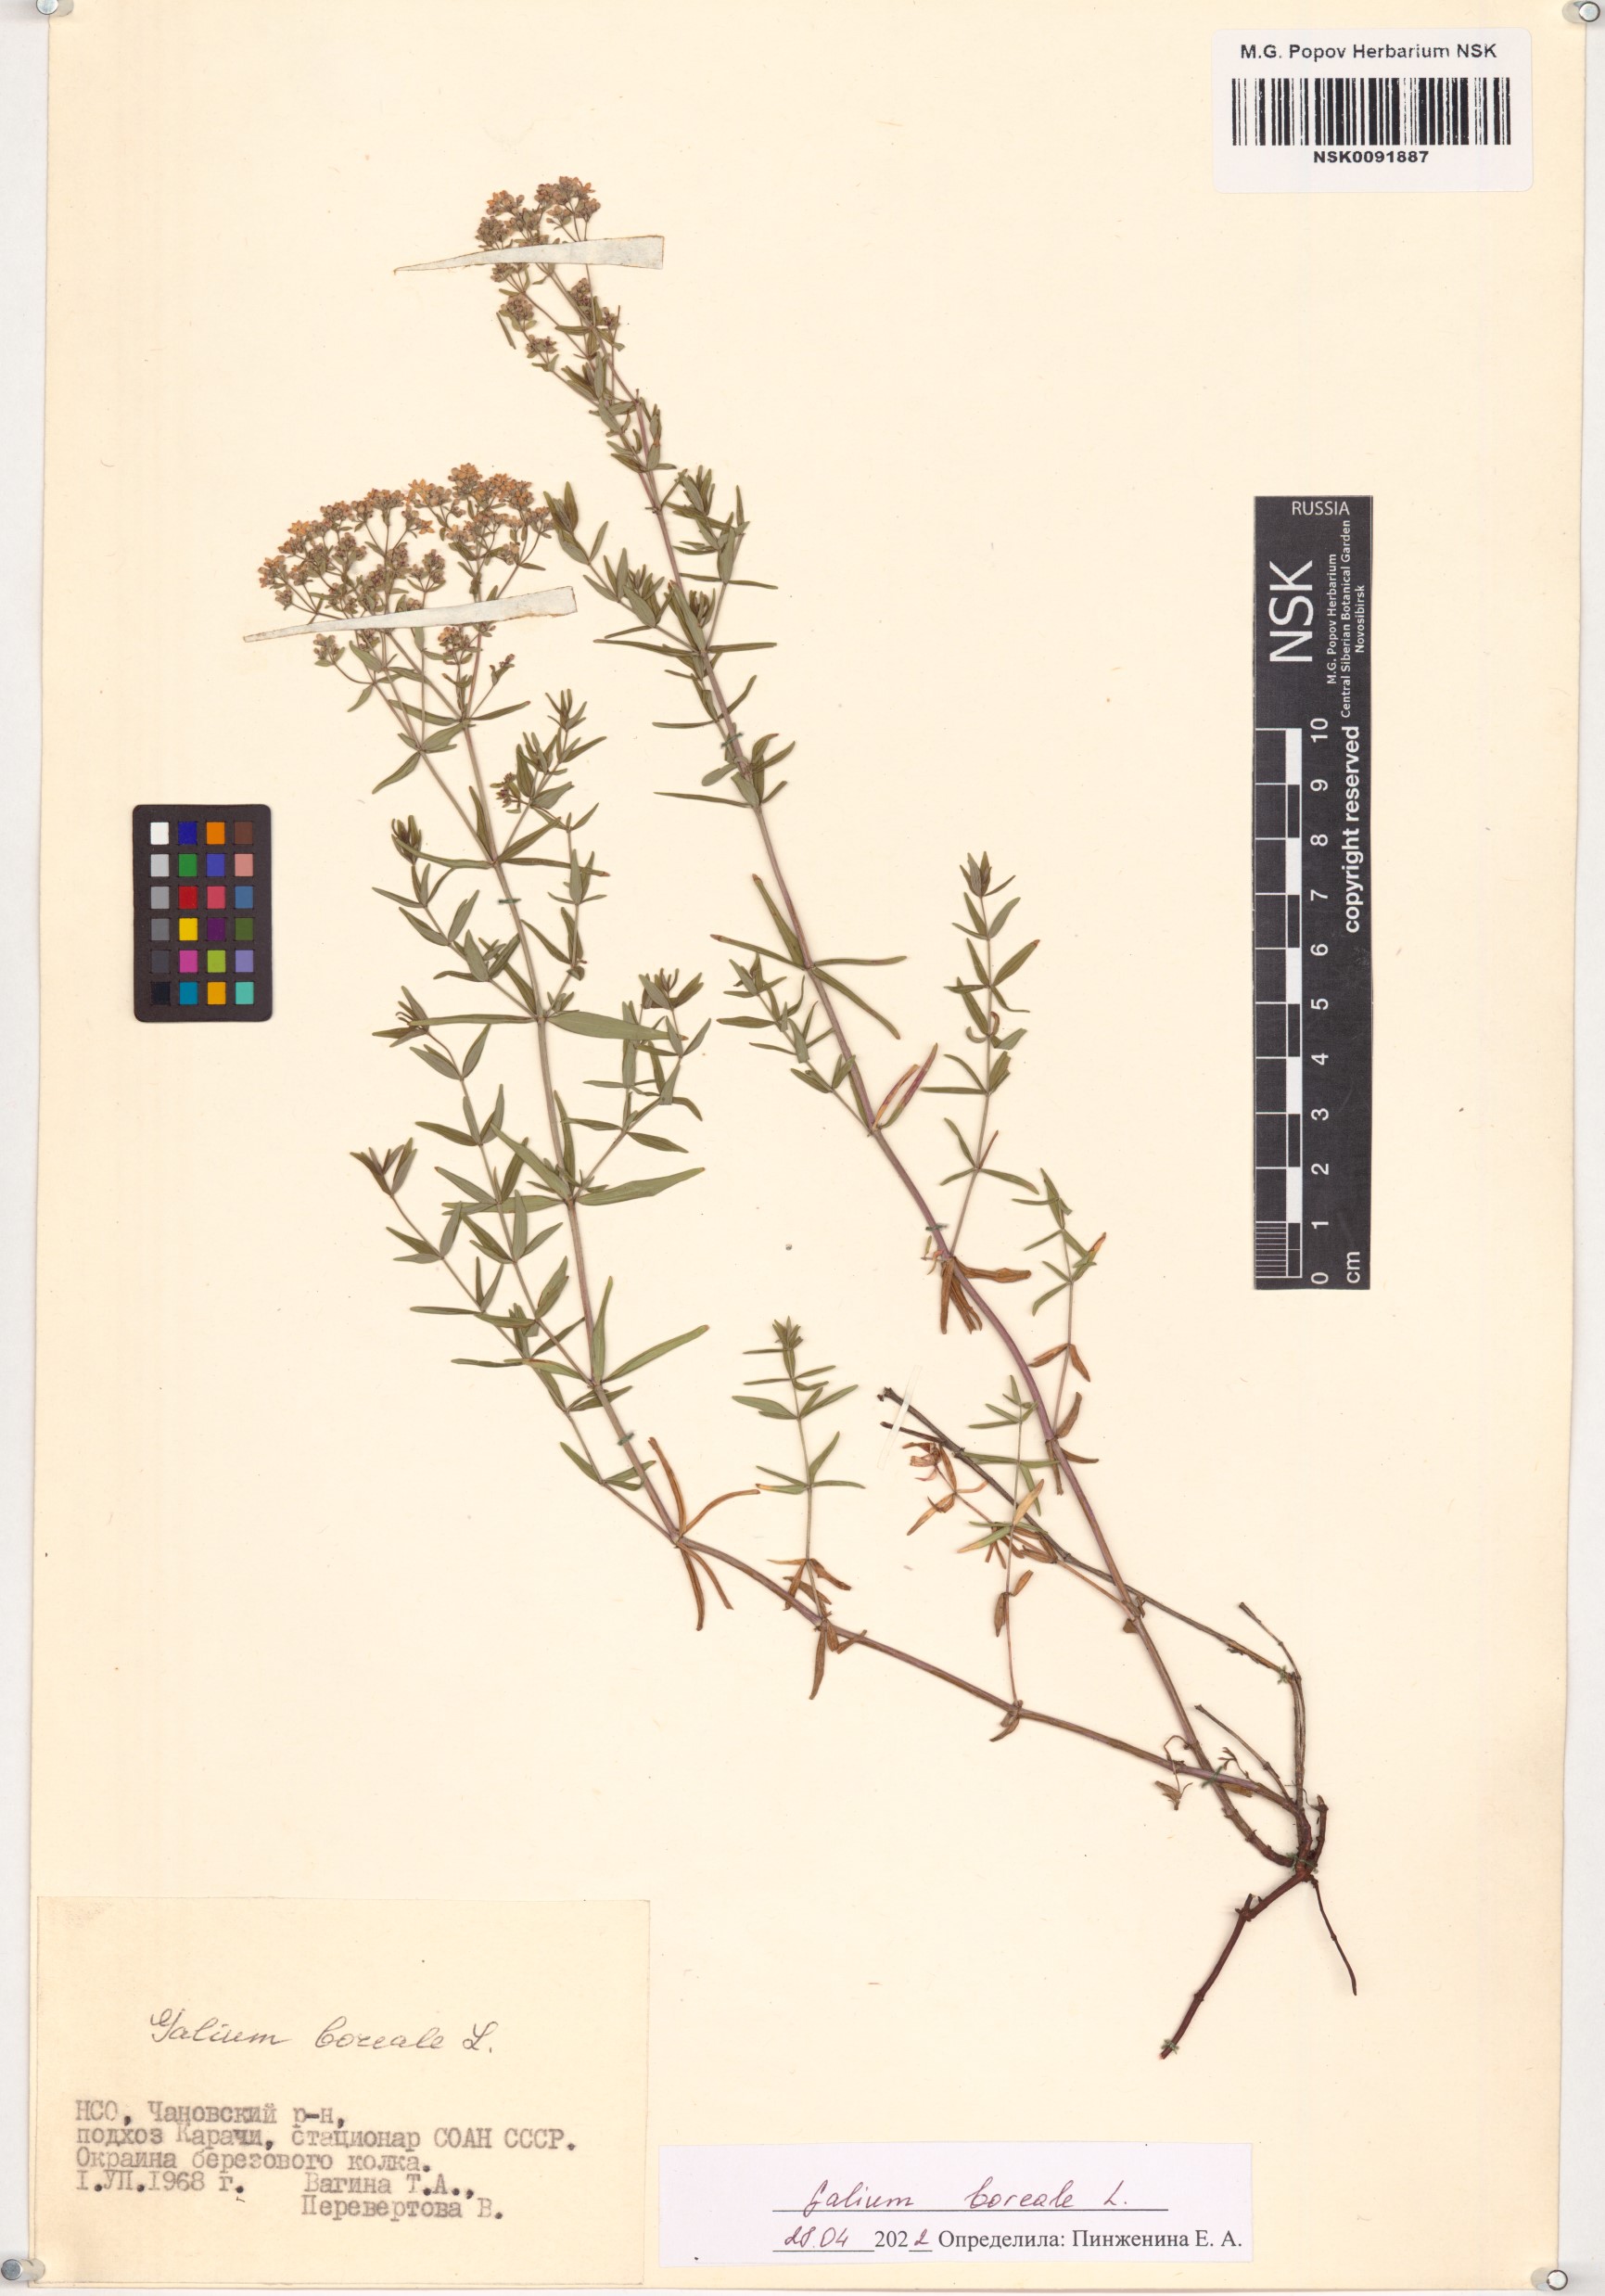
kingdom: Plantae
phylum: Tracheophyta
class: Magnoliopsida
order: Gentianales
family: Rubiaceae
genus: Galium
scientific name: Galium boreale
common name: Northern bedstraw
